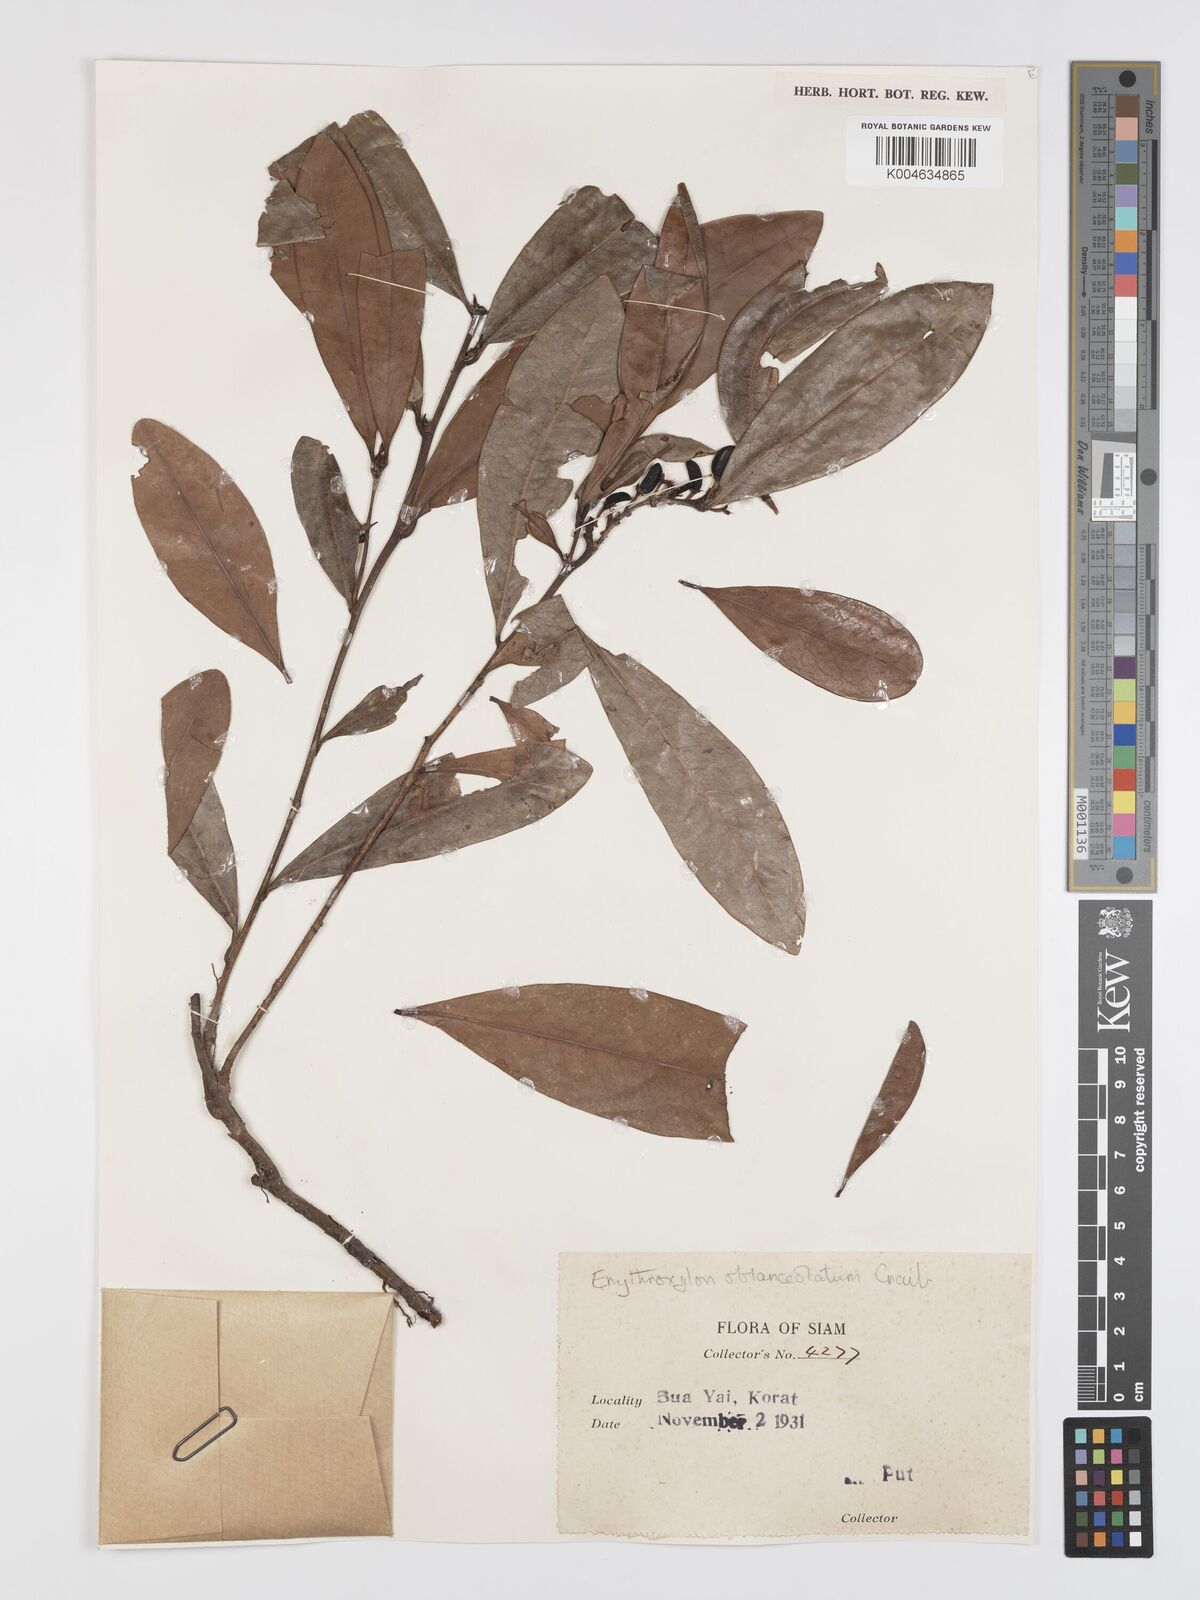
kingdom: Plantae
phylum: Tracheophyta
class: Magnoliopsida
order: Malpighiales
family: Erythroxylaceae
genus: Erythroxylum
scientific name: Erythroxylum cuneatum
